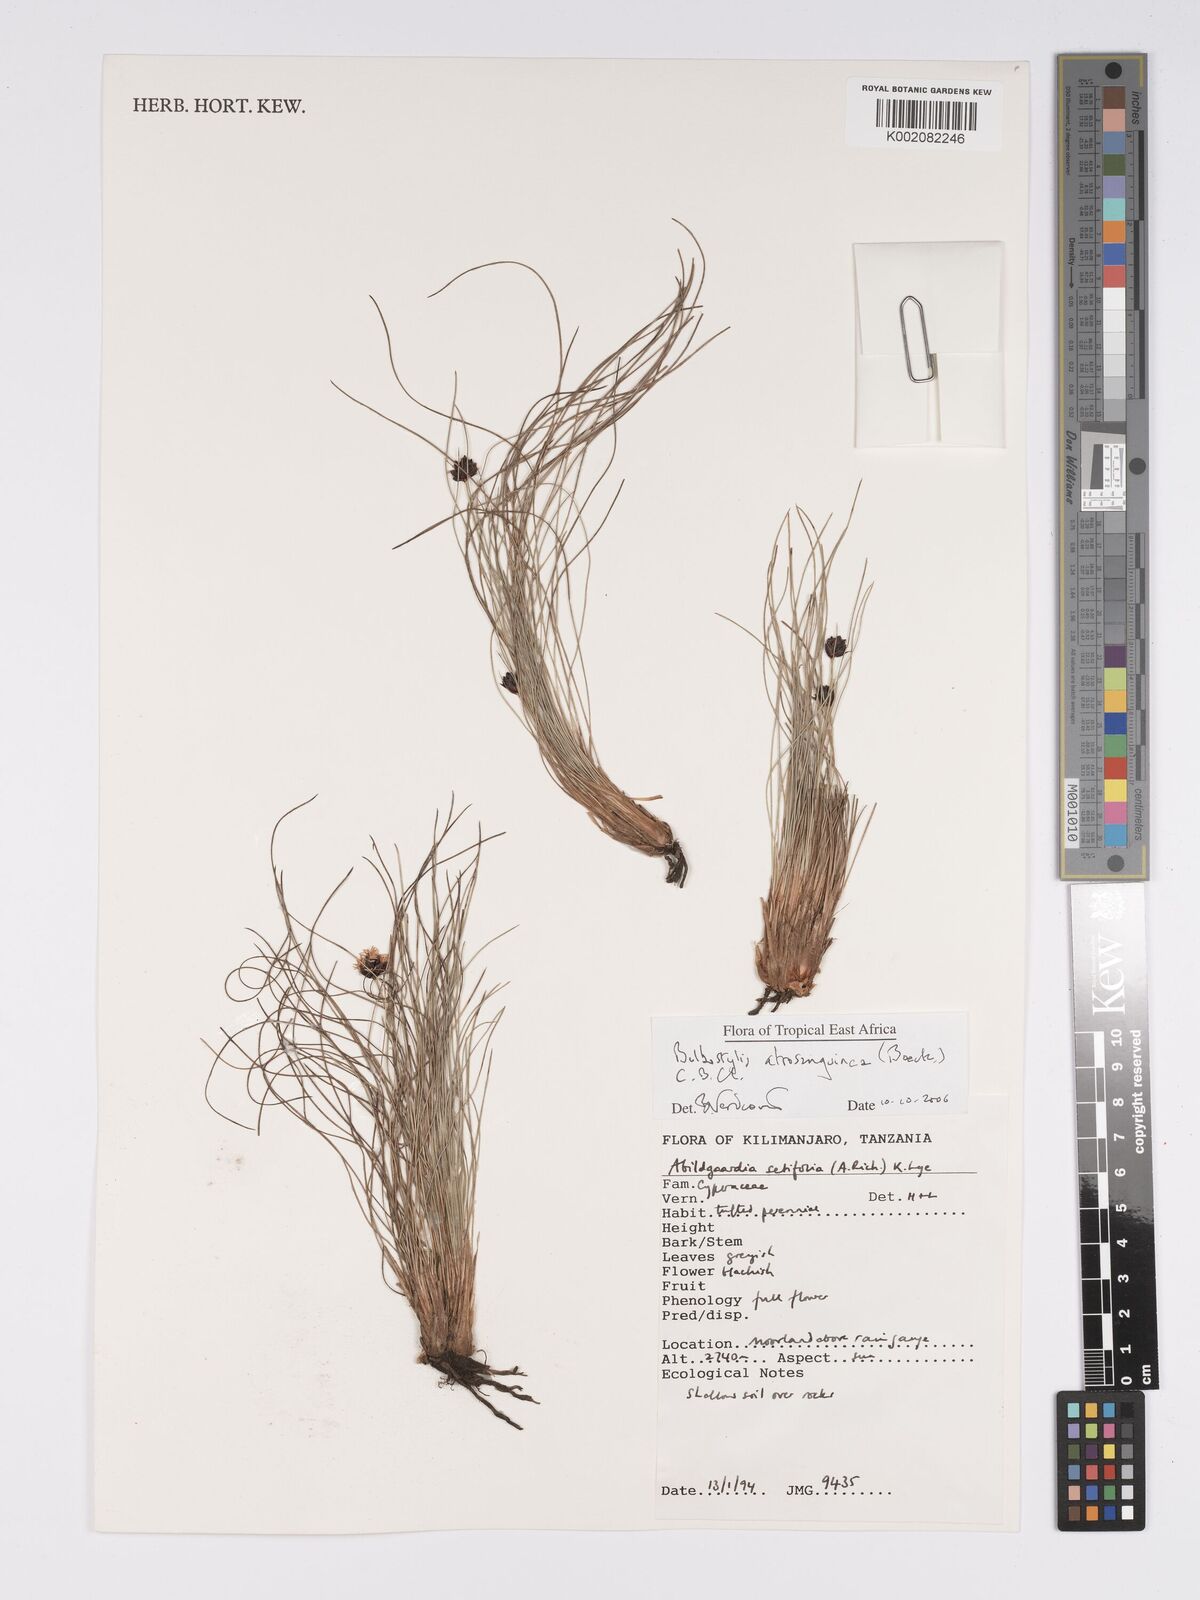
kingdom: Plantae
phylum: Tracheophyta
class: Liliopsida
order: Poales
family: Cyperaceae
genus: Bulbostylis
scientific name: Bulbostylis atrosanguinea
